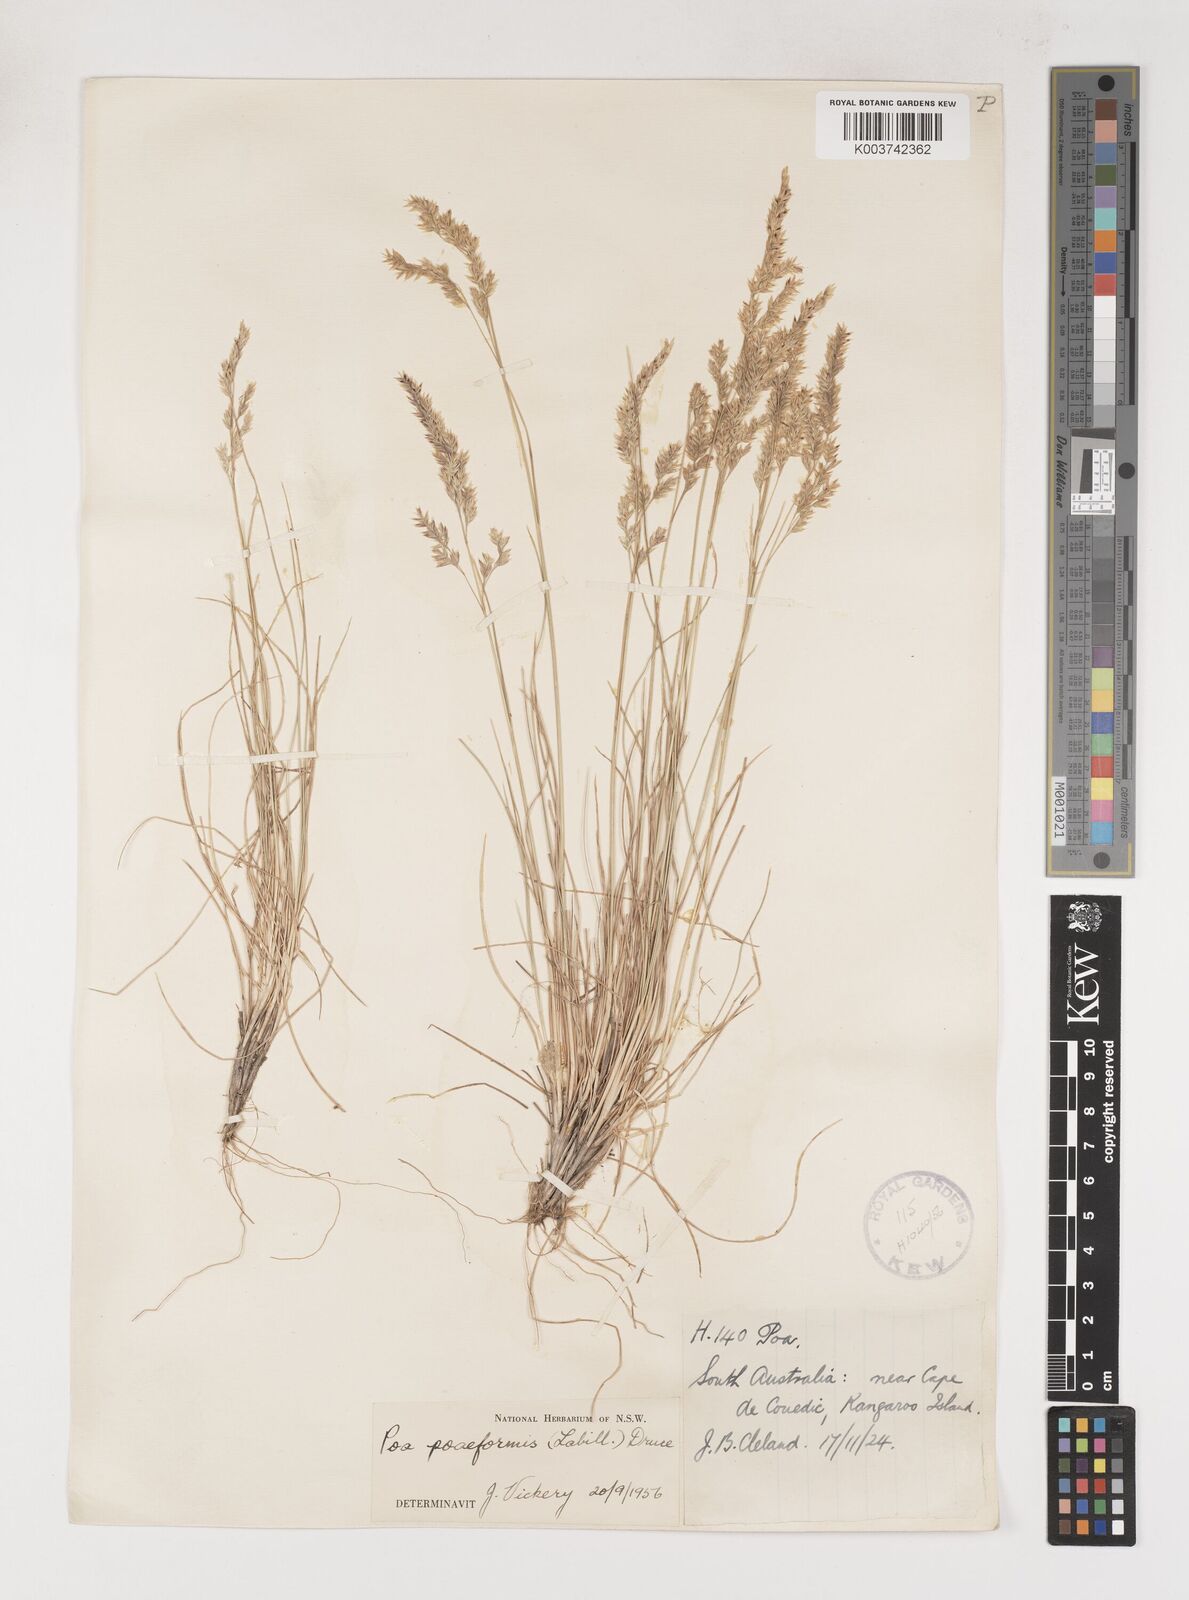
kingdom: Plantae
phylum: Tracheophyta
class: Liliopsida
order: Poales
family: Poaceae
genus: Poa
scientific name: Poa poiformis
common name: Tussock poa
